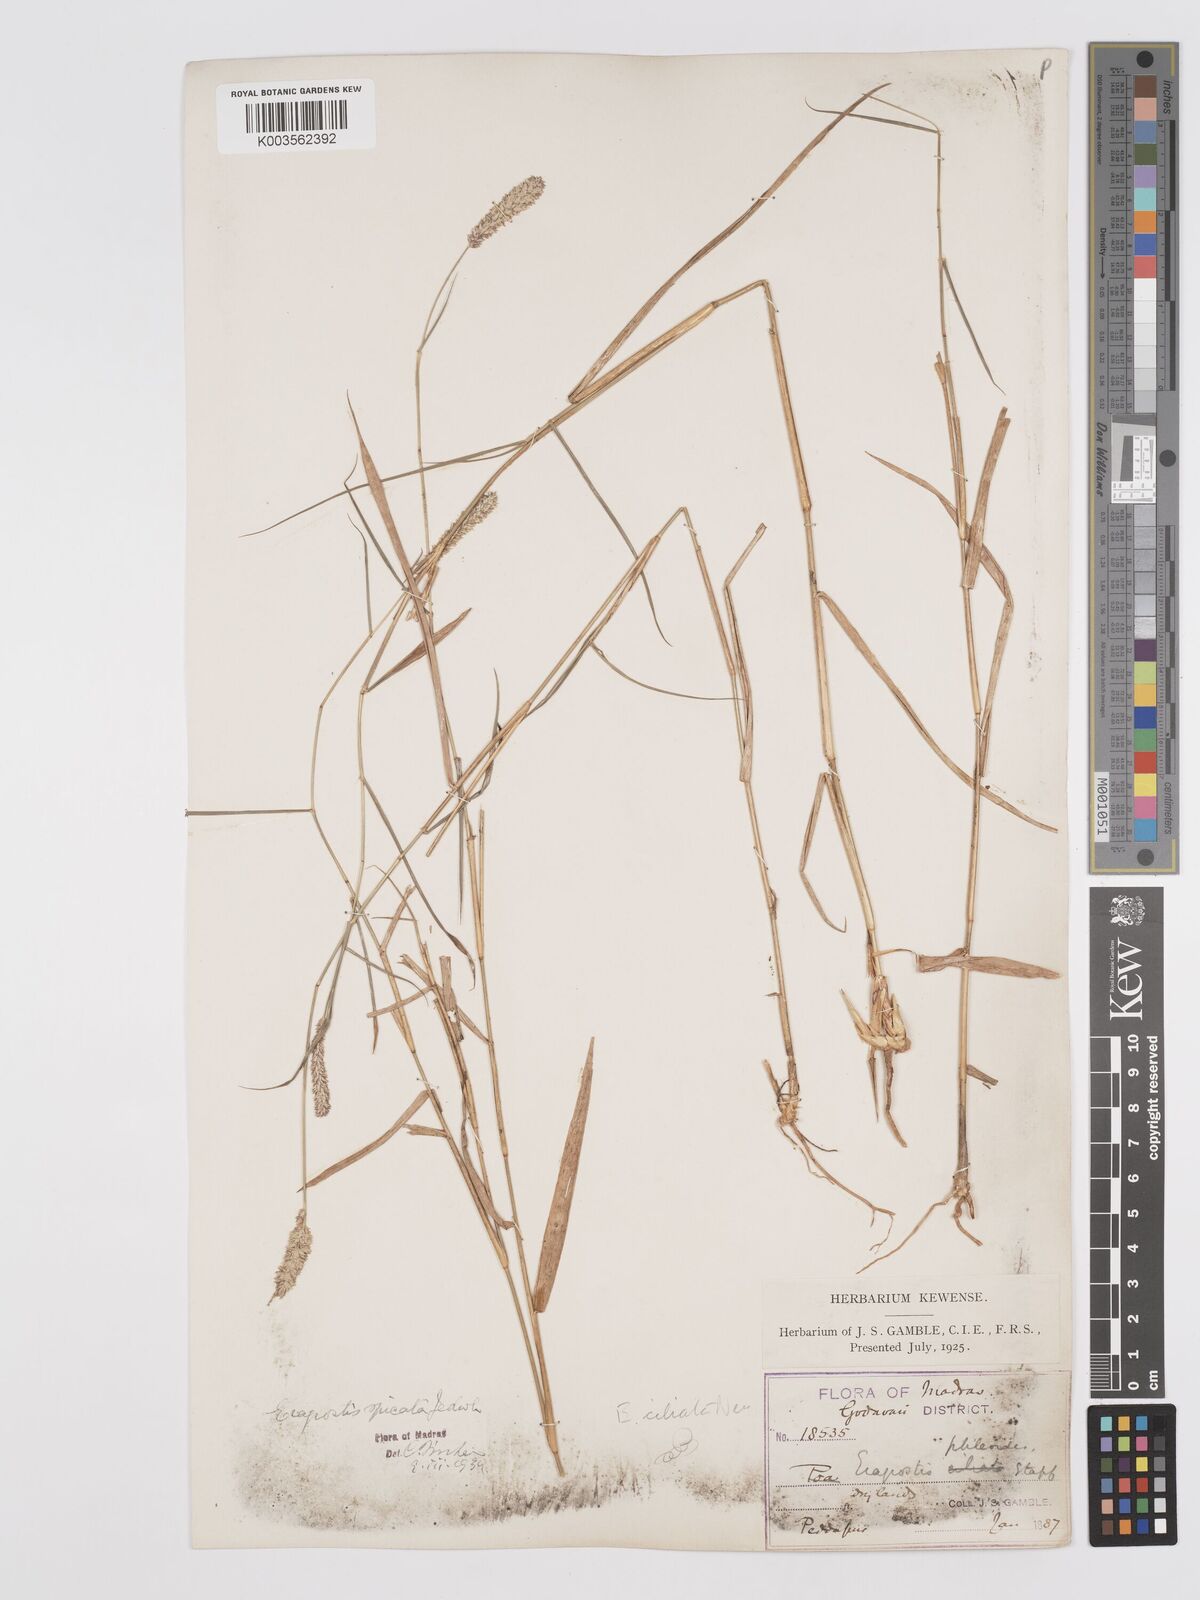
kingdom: Plantae
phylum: Tracheophyta
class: Liliopsida
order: Poales
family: Poaceae
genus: Eragrostis
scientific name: Eragrostis ciliata
